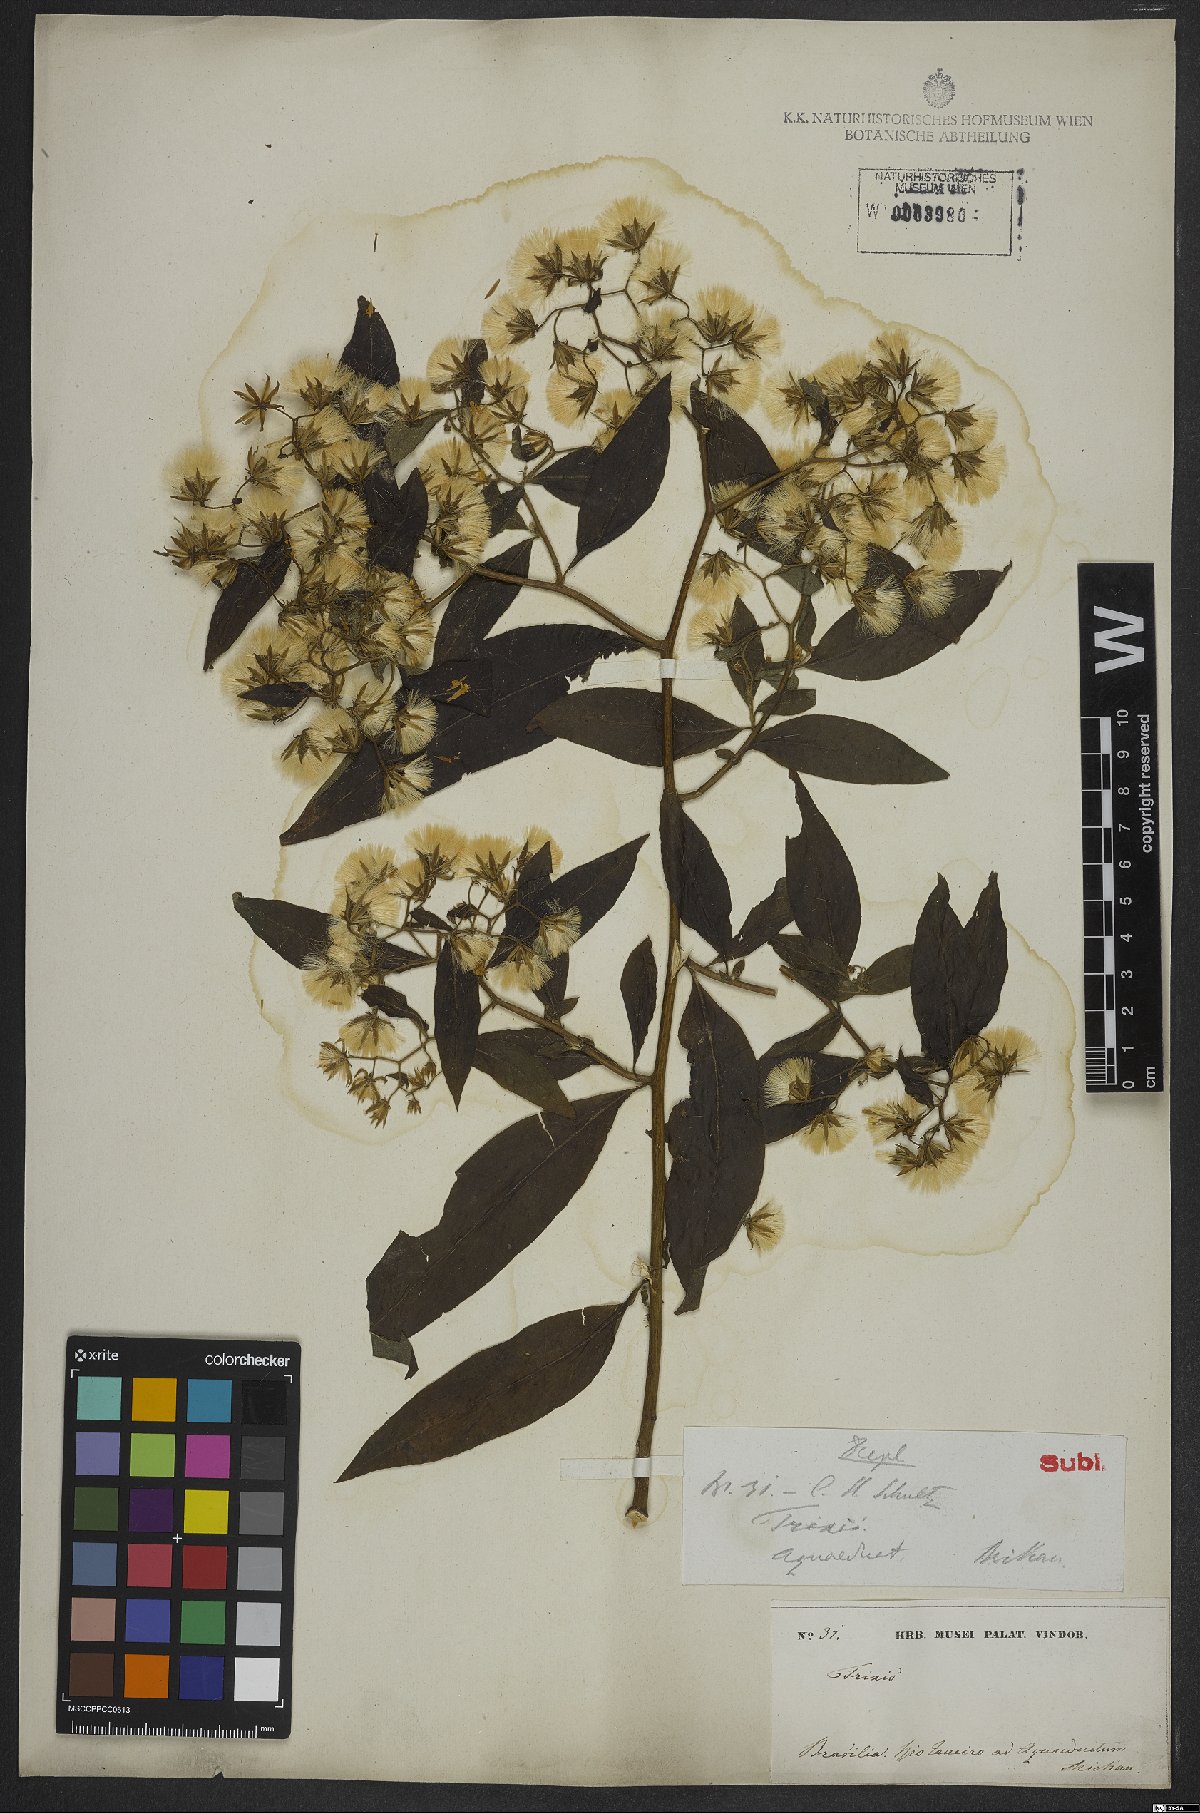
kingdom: Plantae
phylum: Tracheophyta
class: Magnoliopsida
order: Asterales
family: Asteraceae
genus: Trixis
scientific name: Trixis divaricata
